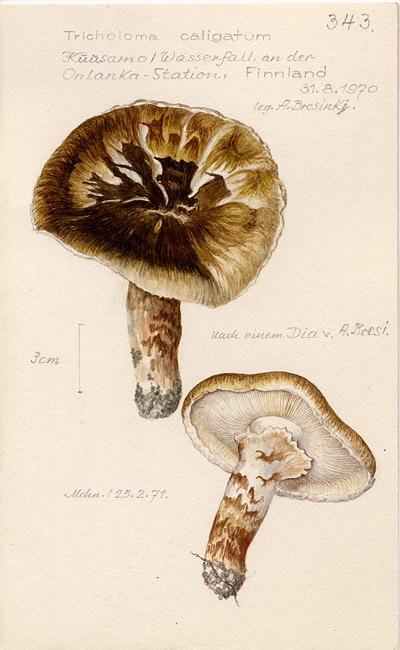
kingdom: Fungi
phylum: Basidiomycota
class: Agaricomycetes
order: Agaricales
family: Tricholomataceae
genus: Tricholoma
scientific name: Tricholoma caligatum
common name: True booted knight
